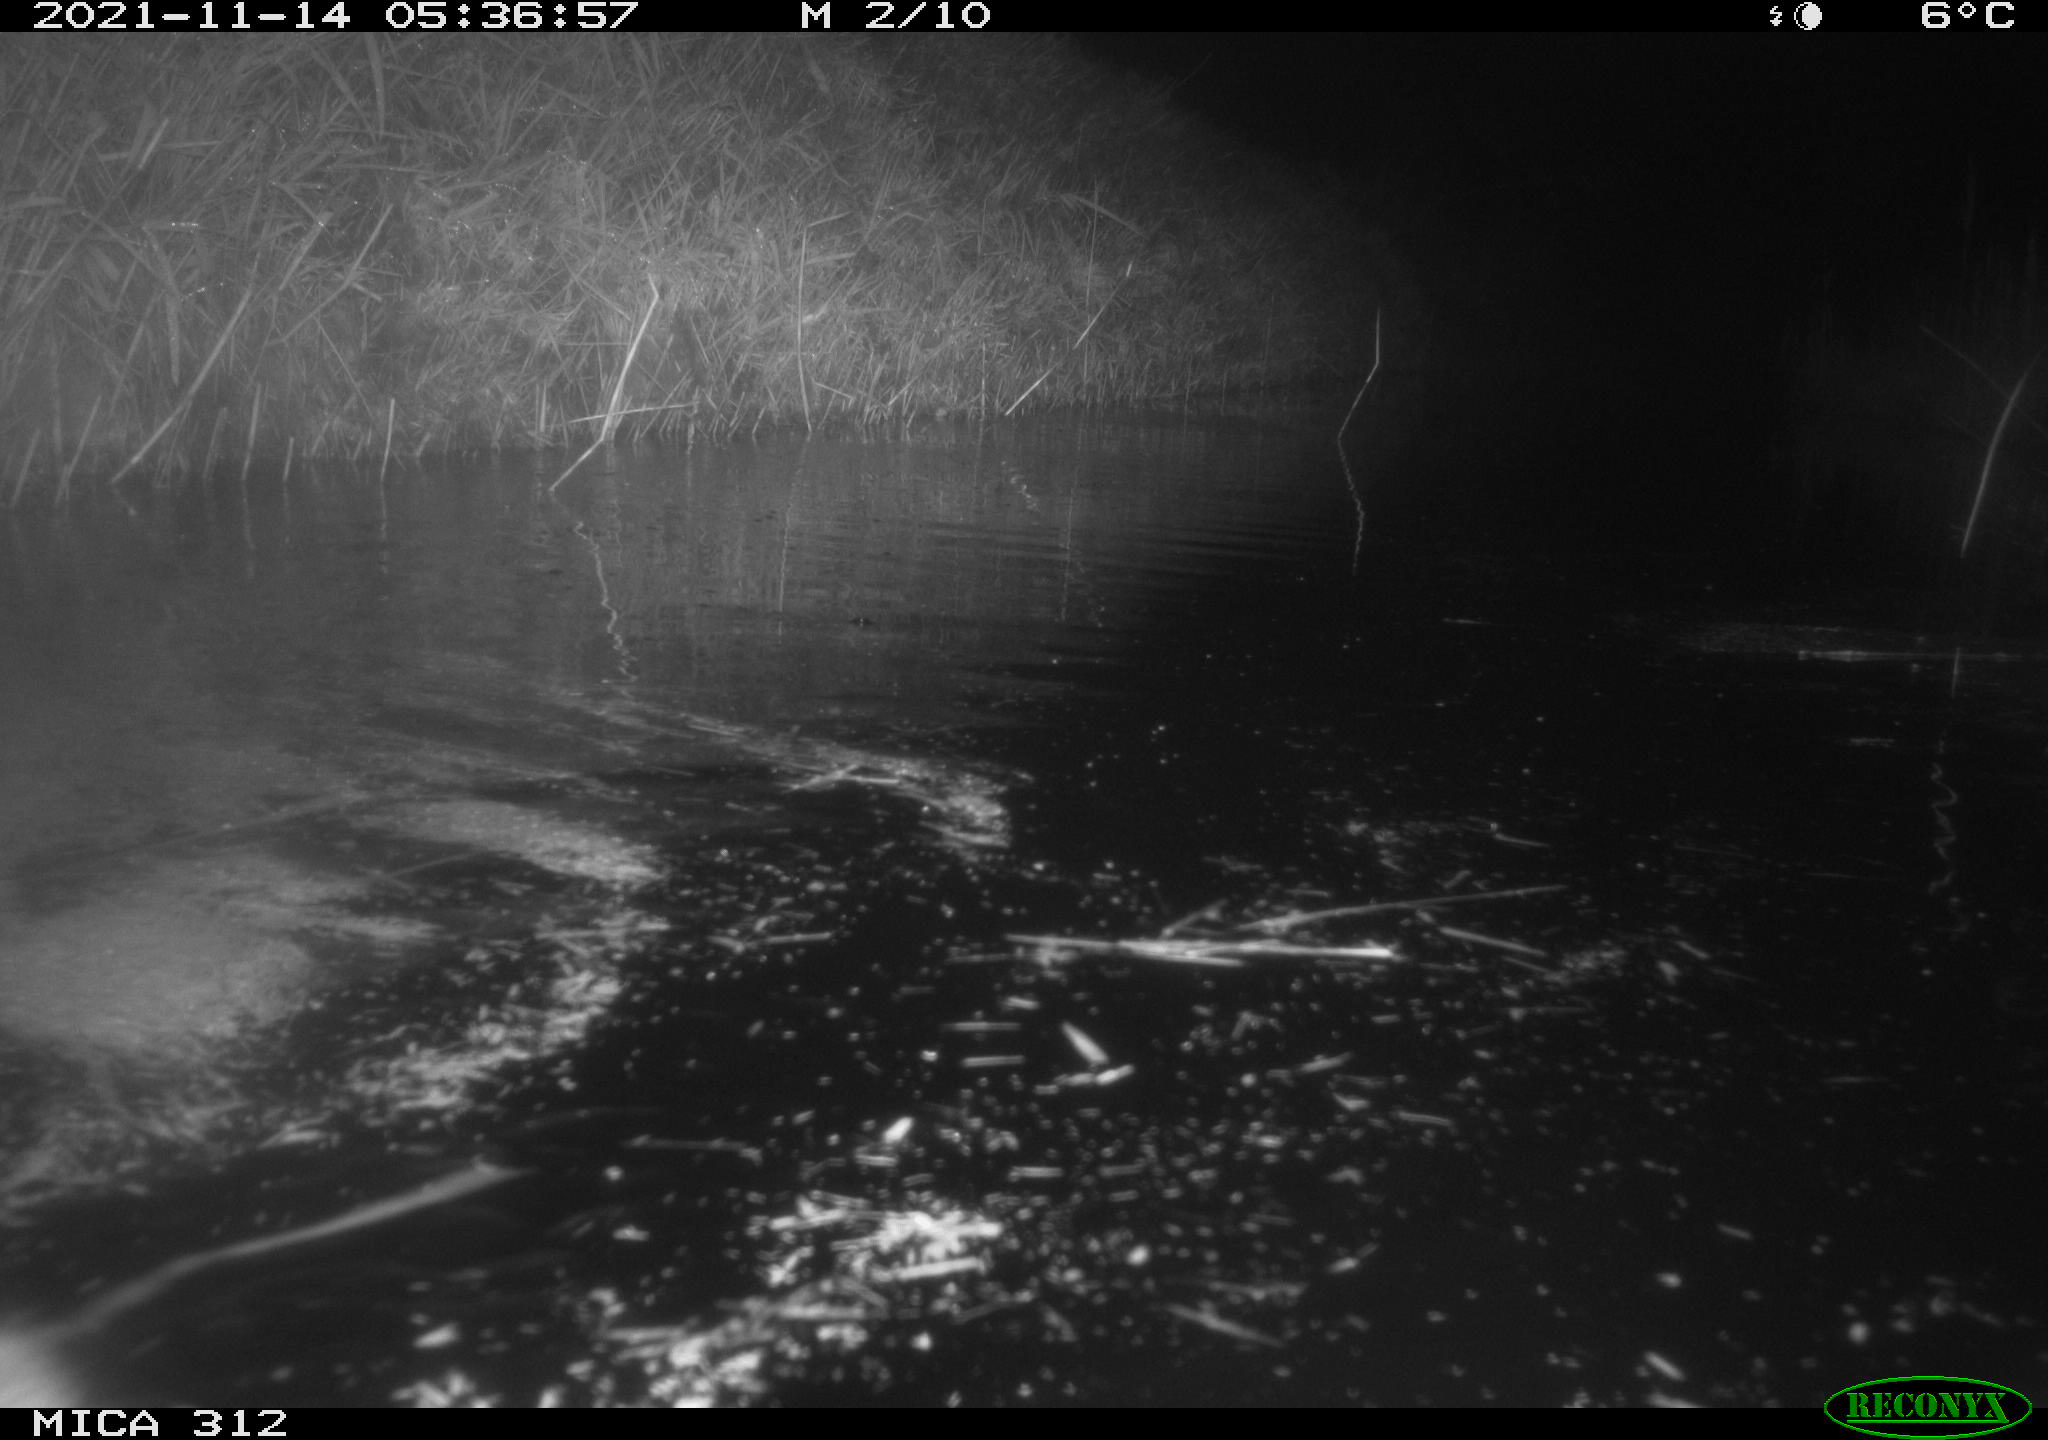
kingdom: Animalia
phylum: Chordata
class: Mammalia
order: Rodentia
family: Muridae
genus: Rattus
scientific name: Rattus norvegicus
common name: Brown rat
